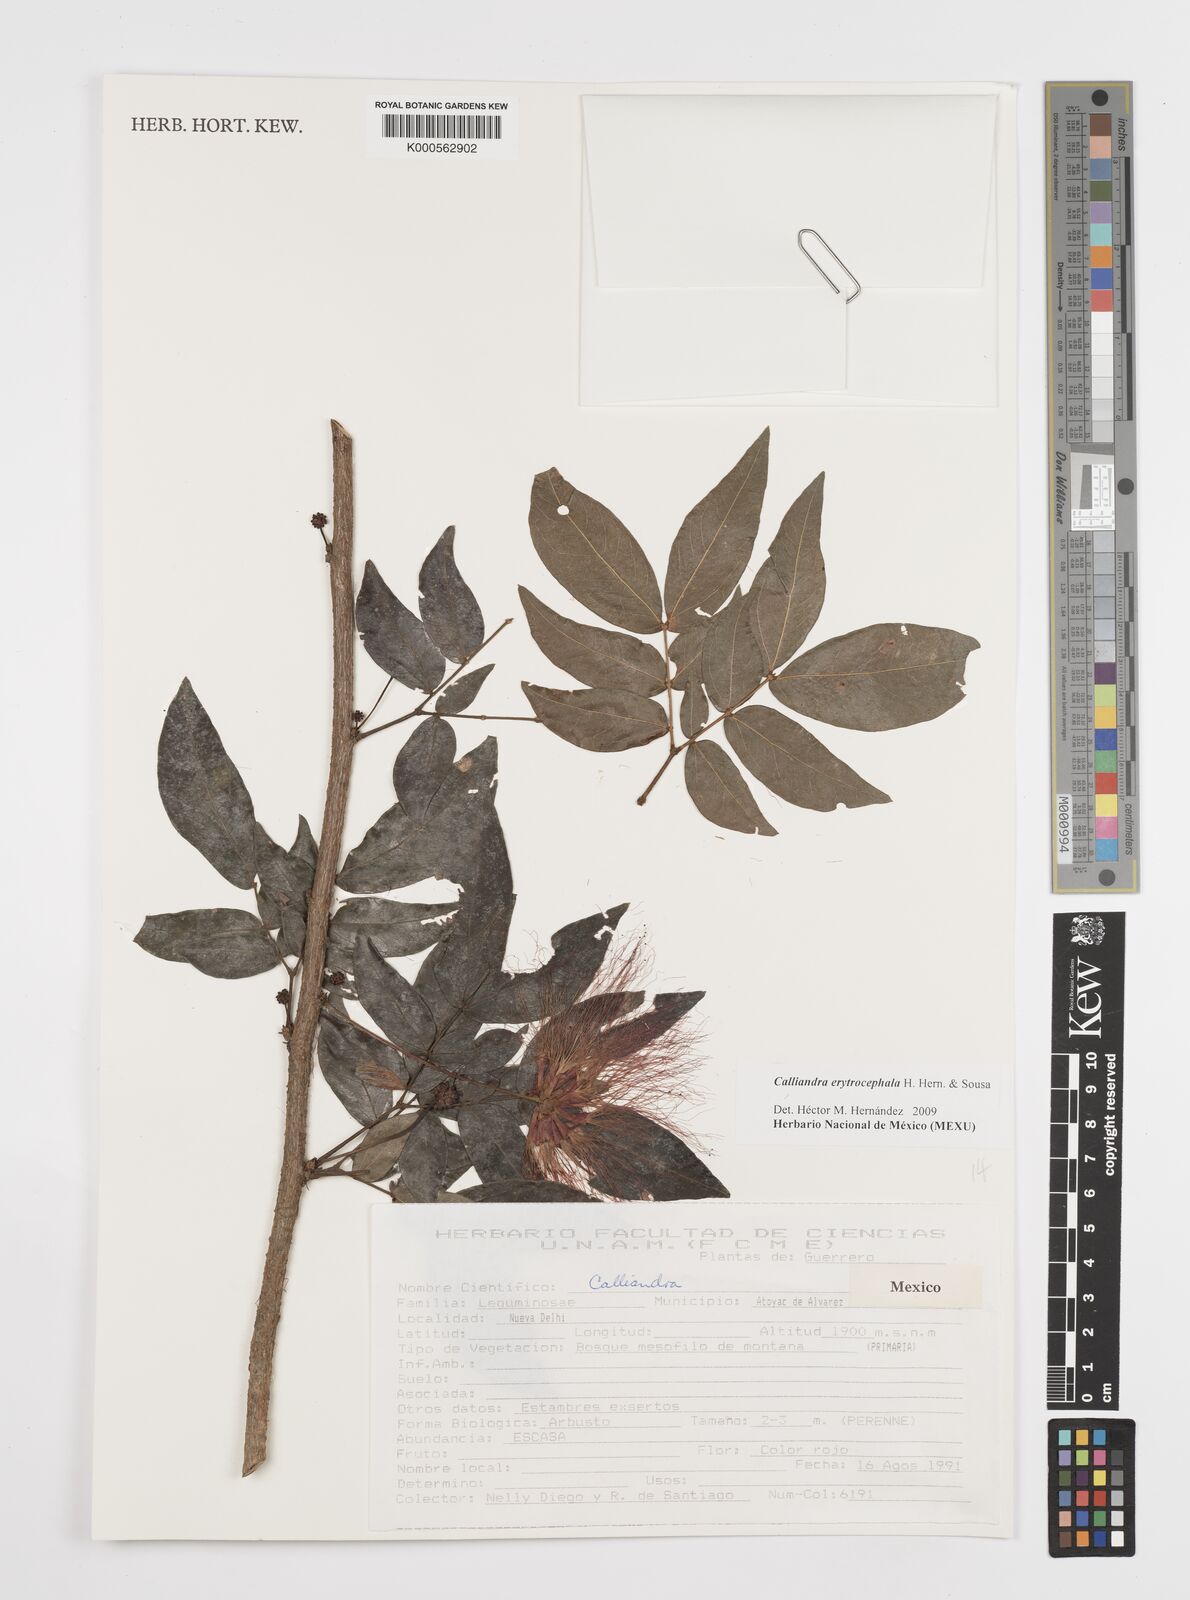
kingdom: Plantae
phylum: Tracheophyta
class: Magnoliopsida
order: Fabales
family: Fabaceae
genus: Calliandra
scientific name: Calliandra
